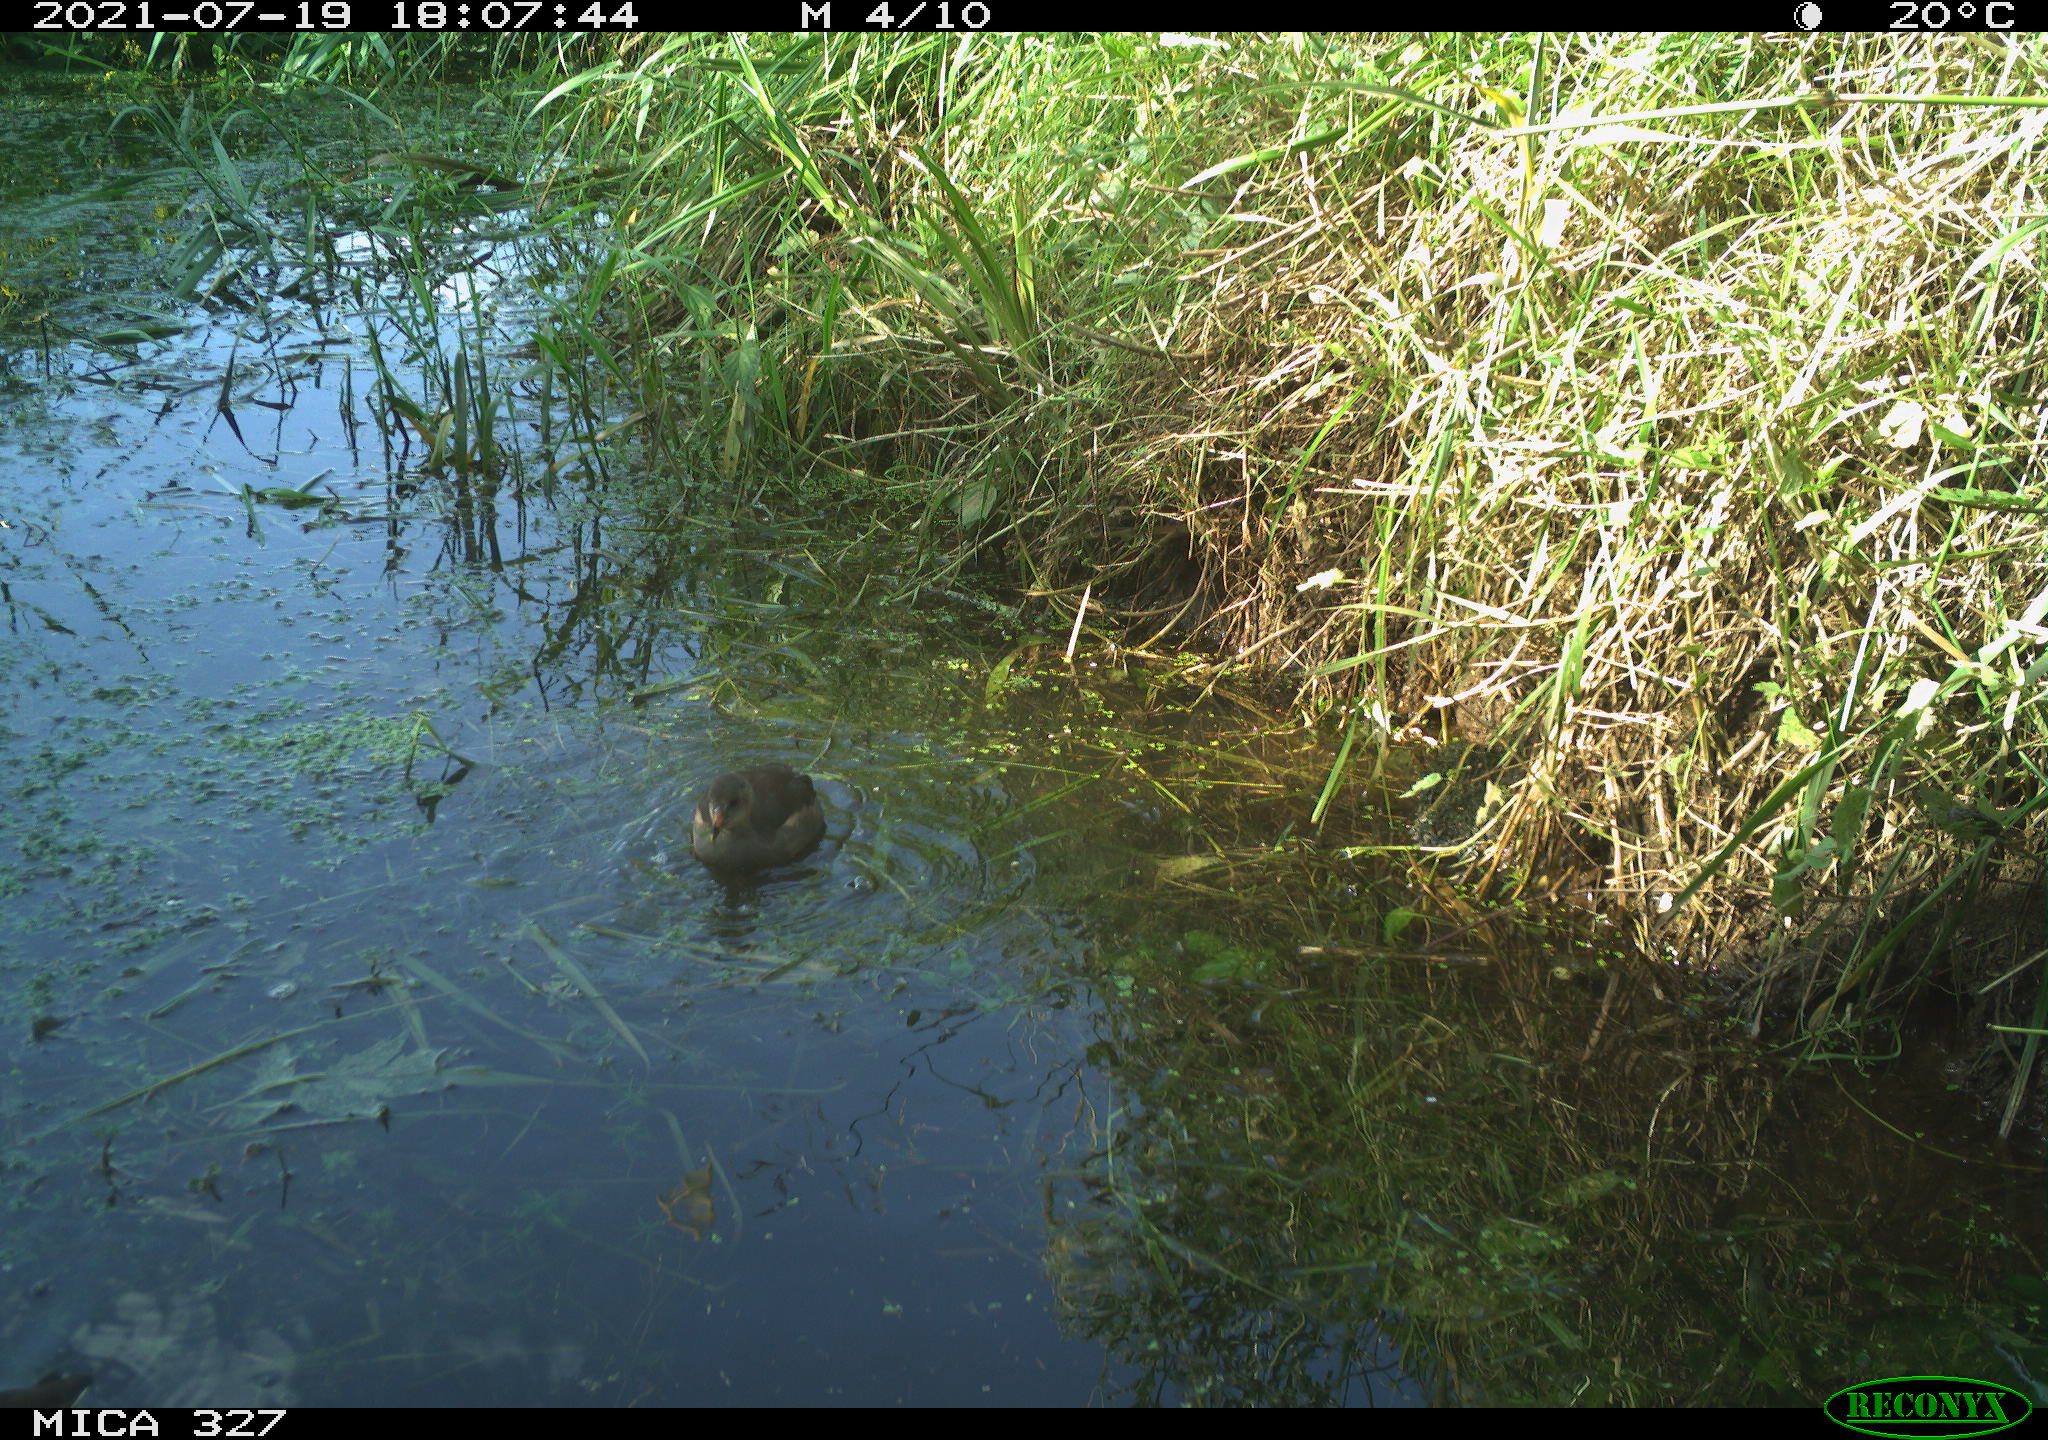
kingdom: Animalia
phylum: Chordata
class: Aves
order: Gruiformes
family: Rallidae
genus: Gallinula
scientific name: Gallinula chloropus
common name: Common moorhen
